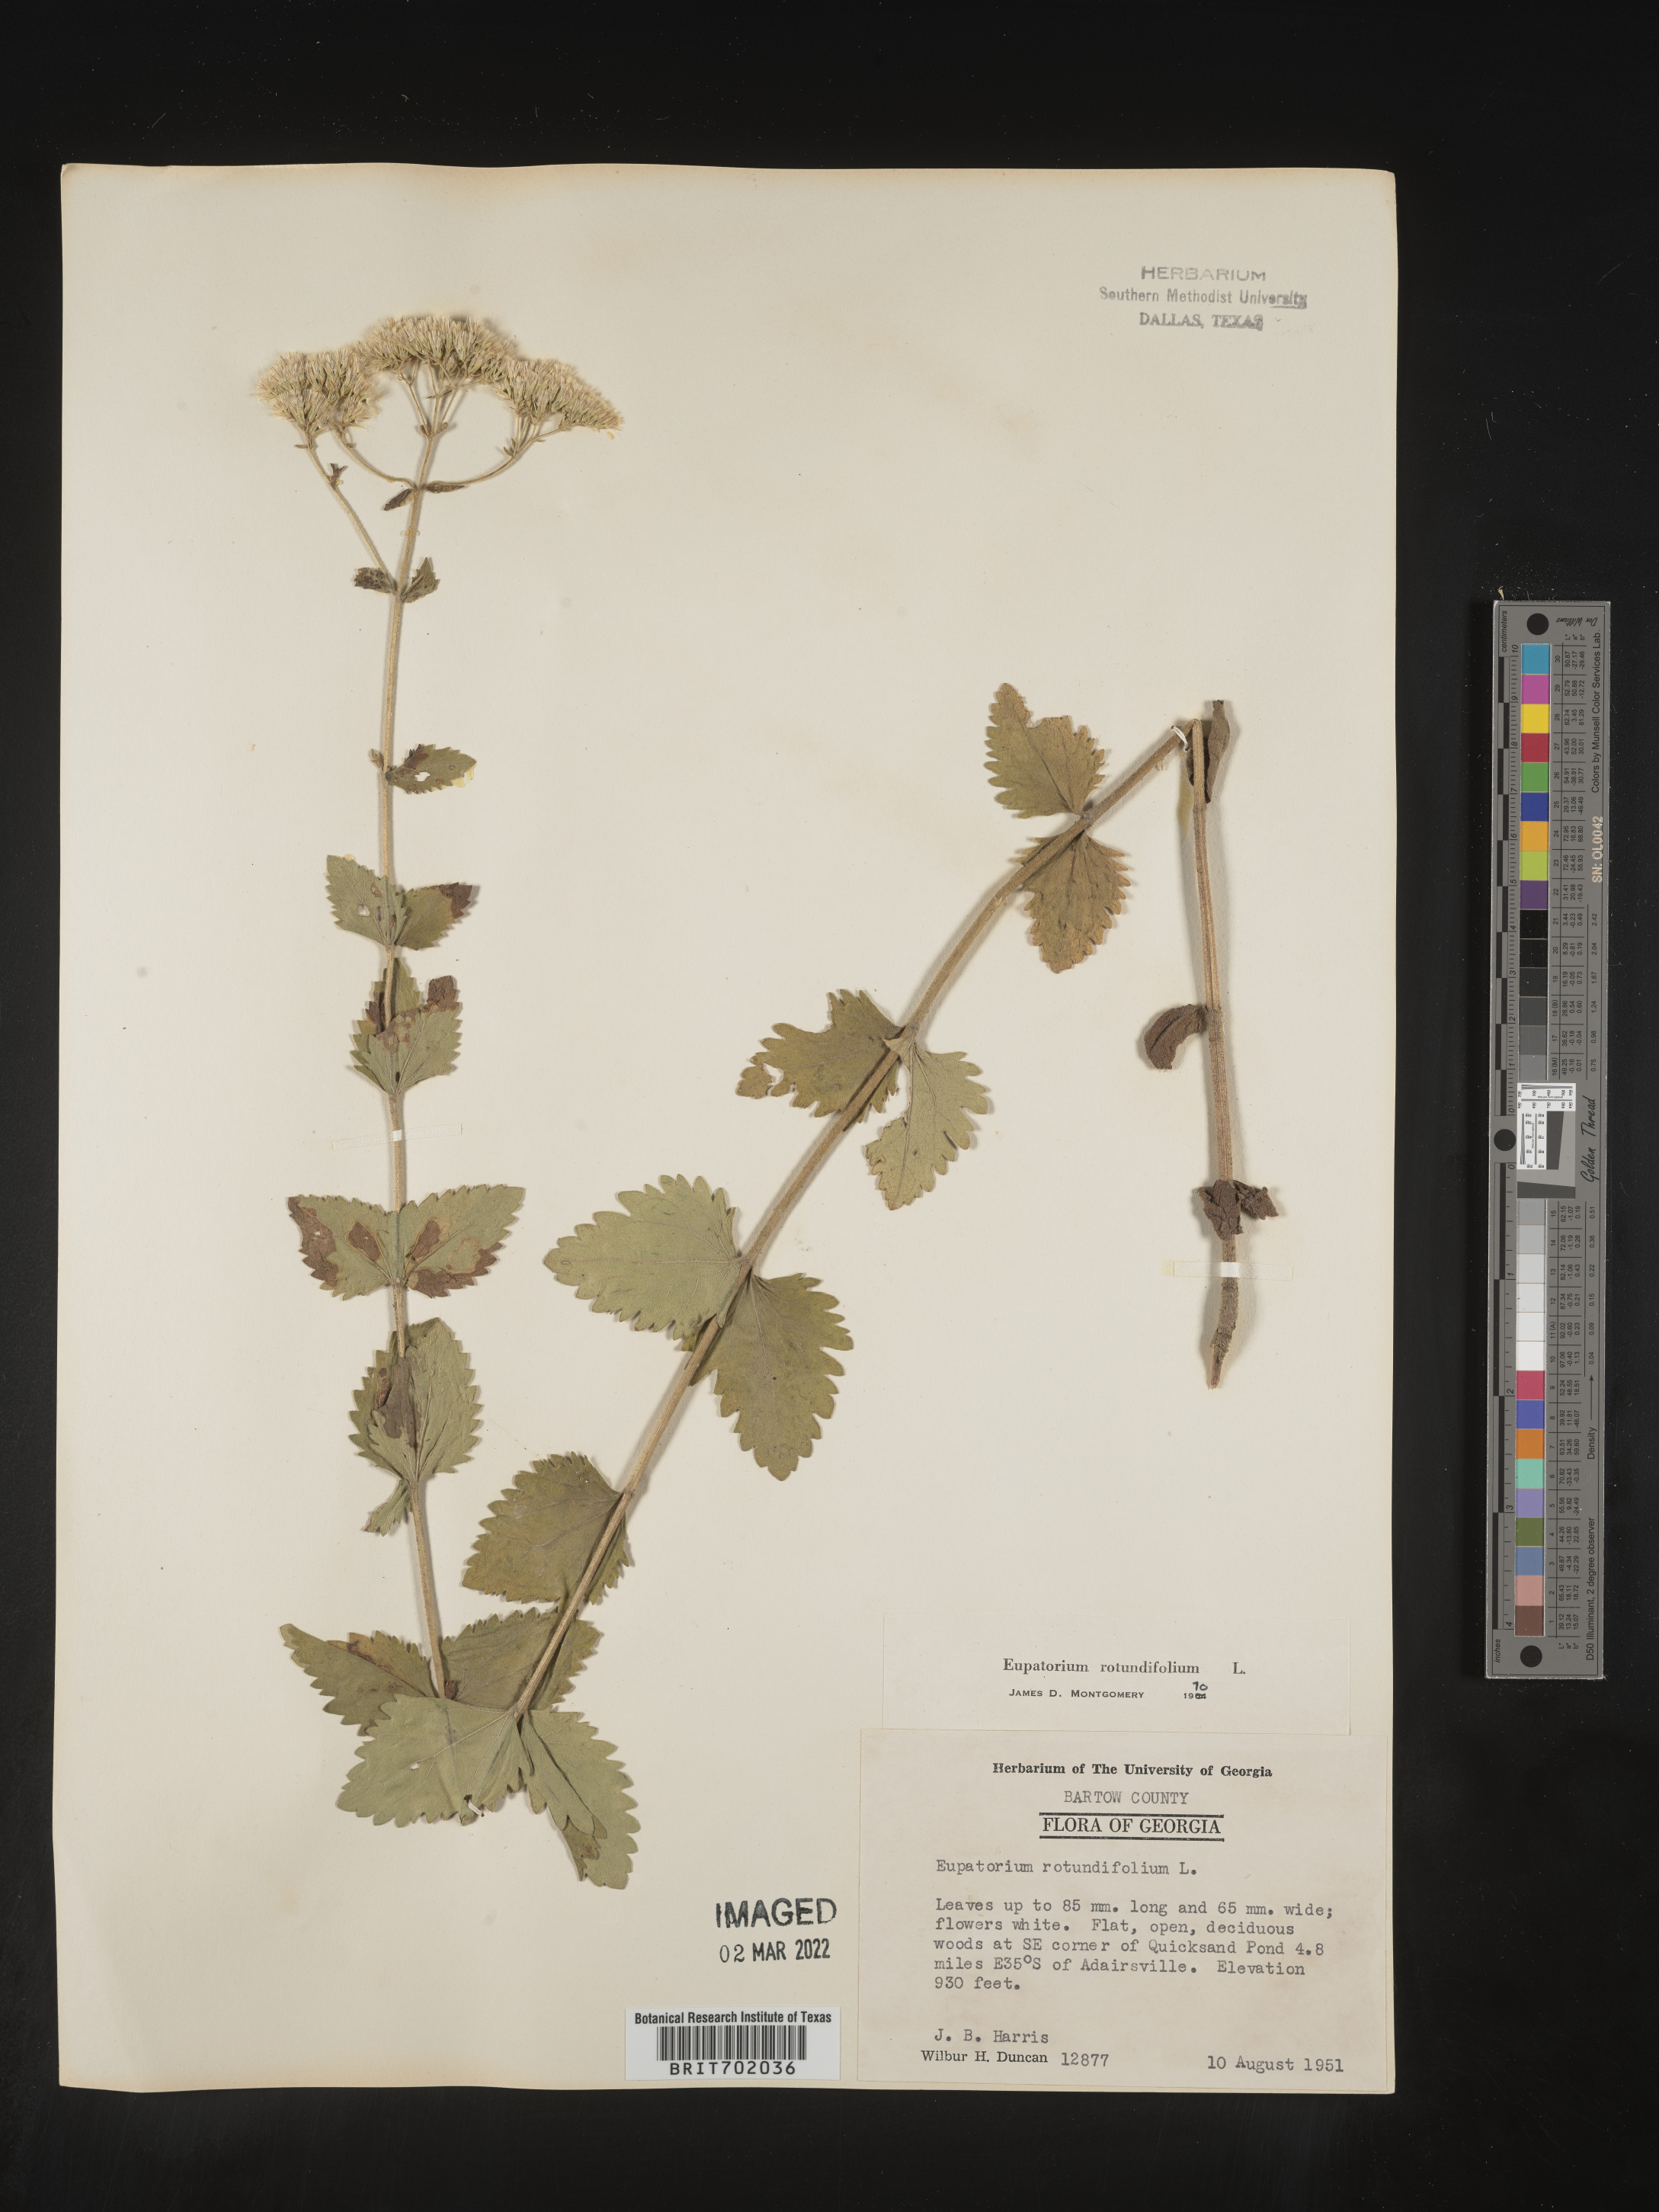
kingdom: Plantae
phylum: Tracheophyta
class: Magnoliopsida
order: Asterales
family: Asteraceae
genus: Eupatorium
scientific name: Eupatorium rotundifolium
